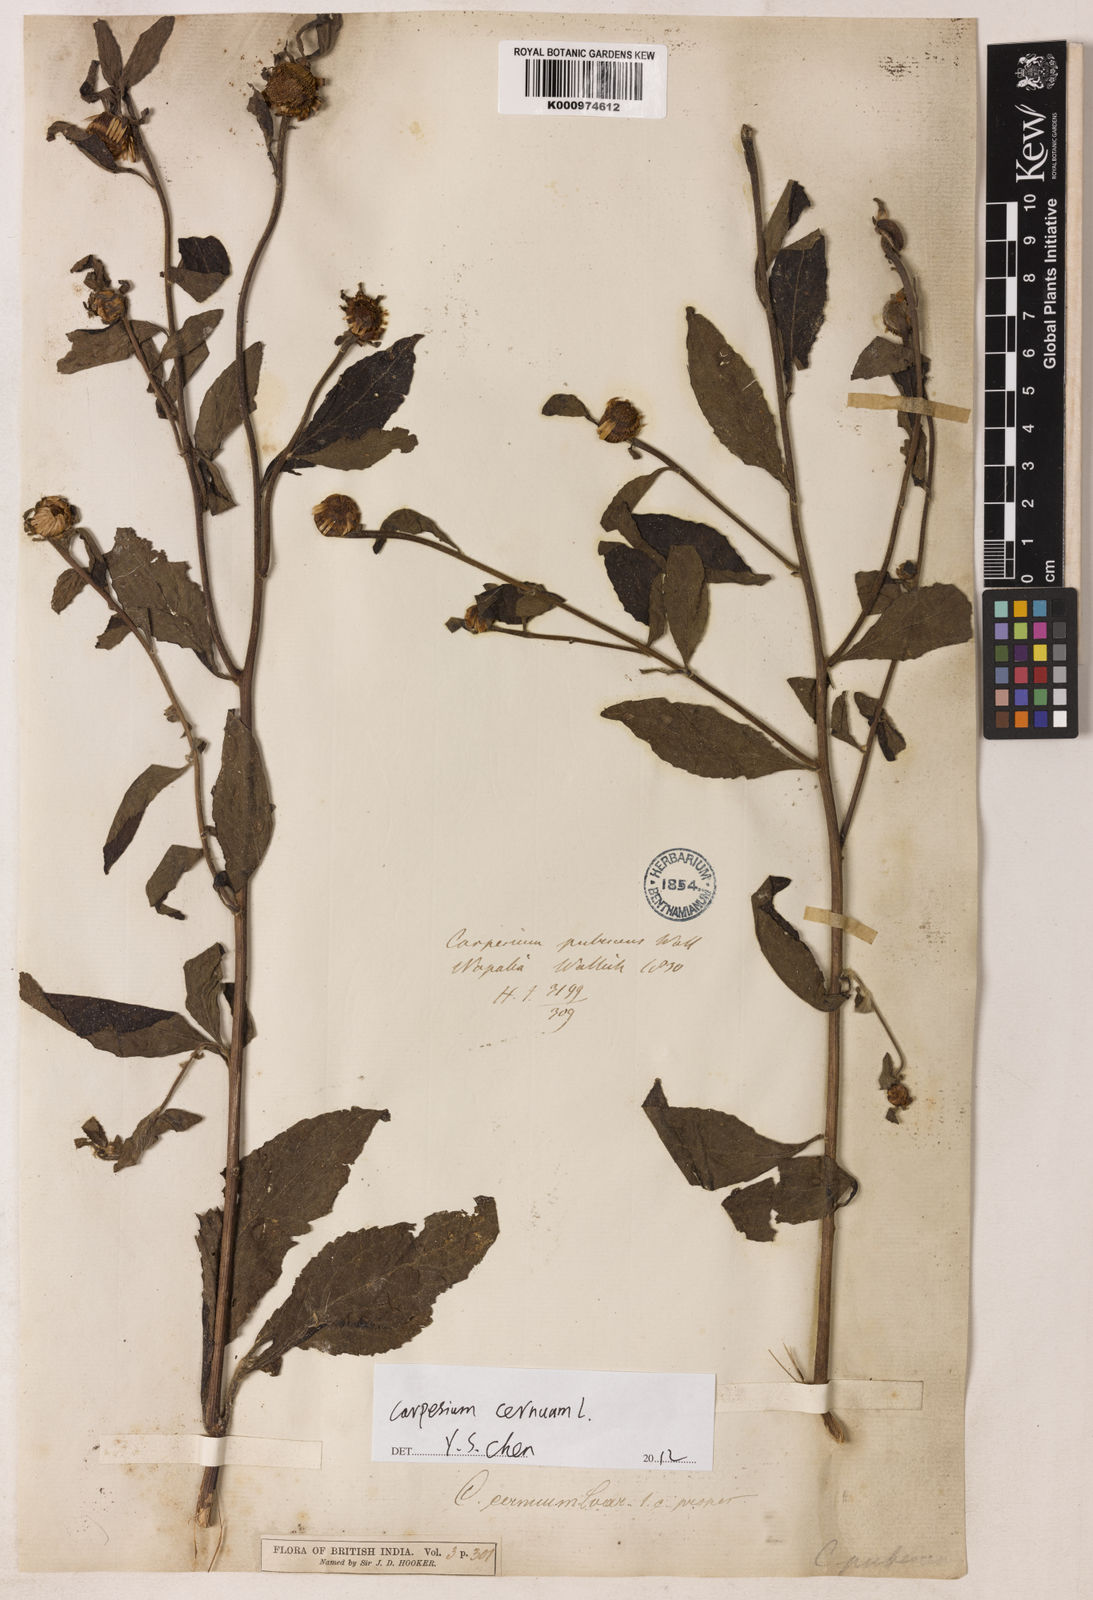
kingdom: Plantae
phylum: Tracheophyta
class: Magnoliopsida
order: Asterales
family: Asteraceae
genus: Carpesium
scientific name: Carpesium cernuum
